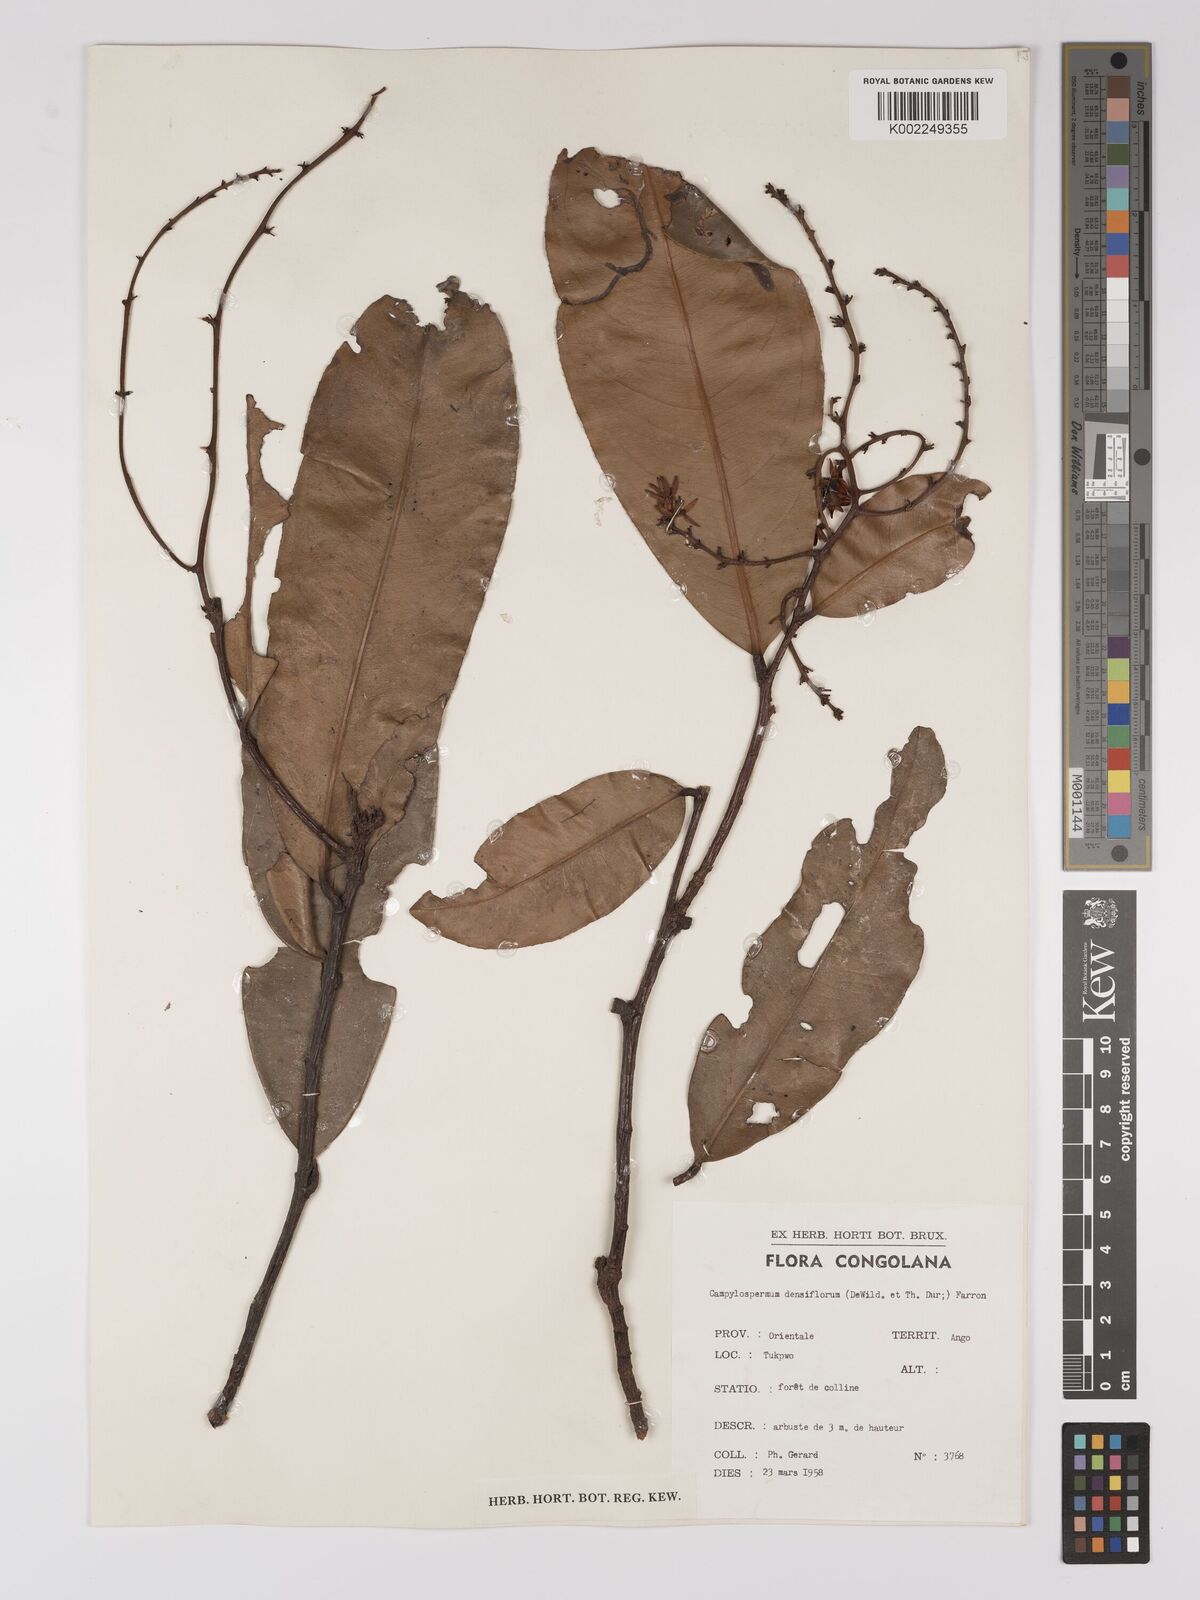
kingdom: Plantae
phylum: Tracheophyta
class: Magnoliopsida
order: Malpighiales
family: Ochnaceae
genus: Gomphia
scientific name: Gomphia densiflora
